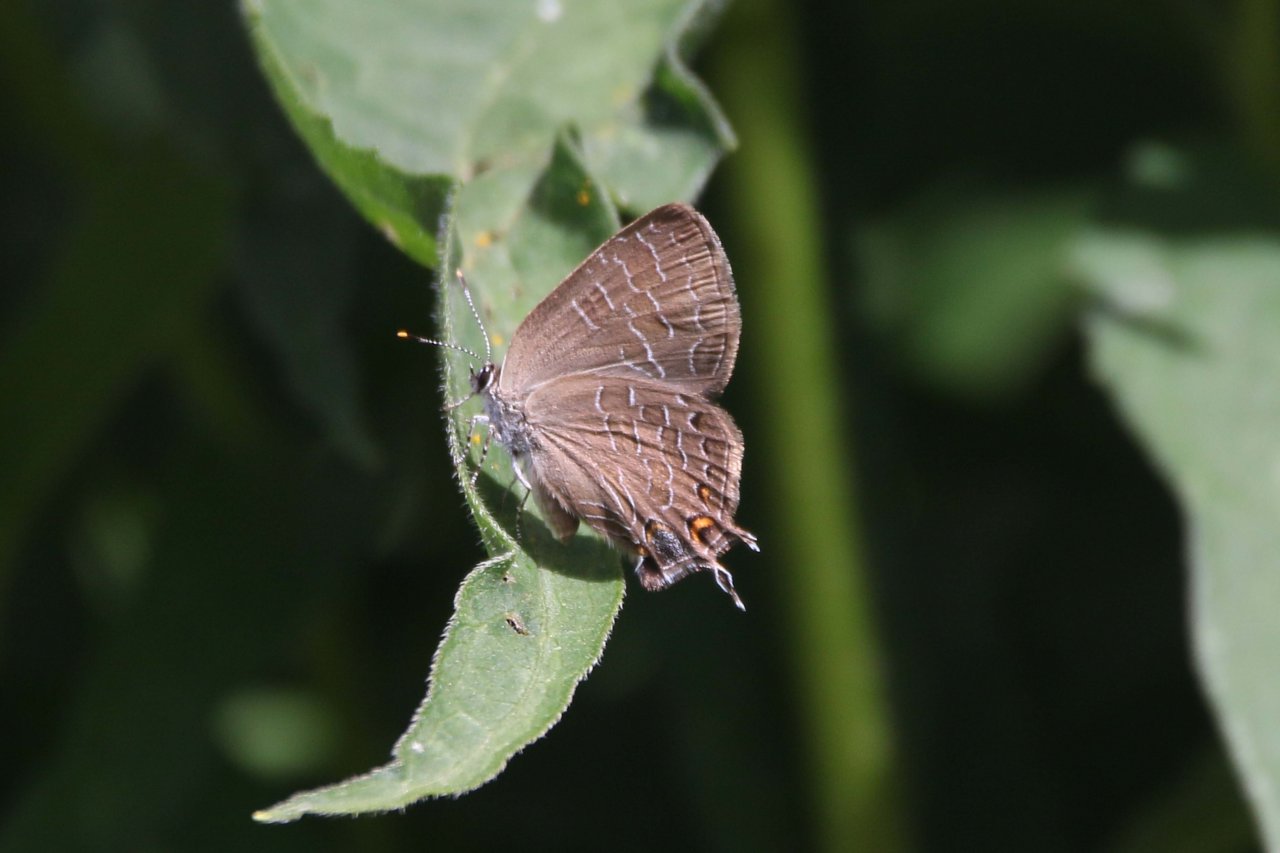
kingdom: Animalia
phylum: Arthropoda
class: Insecta
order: Lepidoptera
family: Lycaenidae
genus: Satyrium
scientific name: Satyrium liparops
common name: Striped Hairstreak
